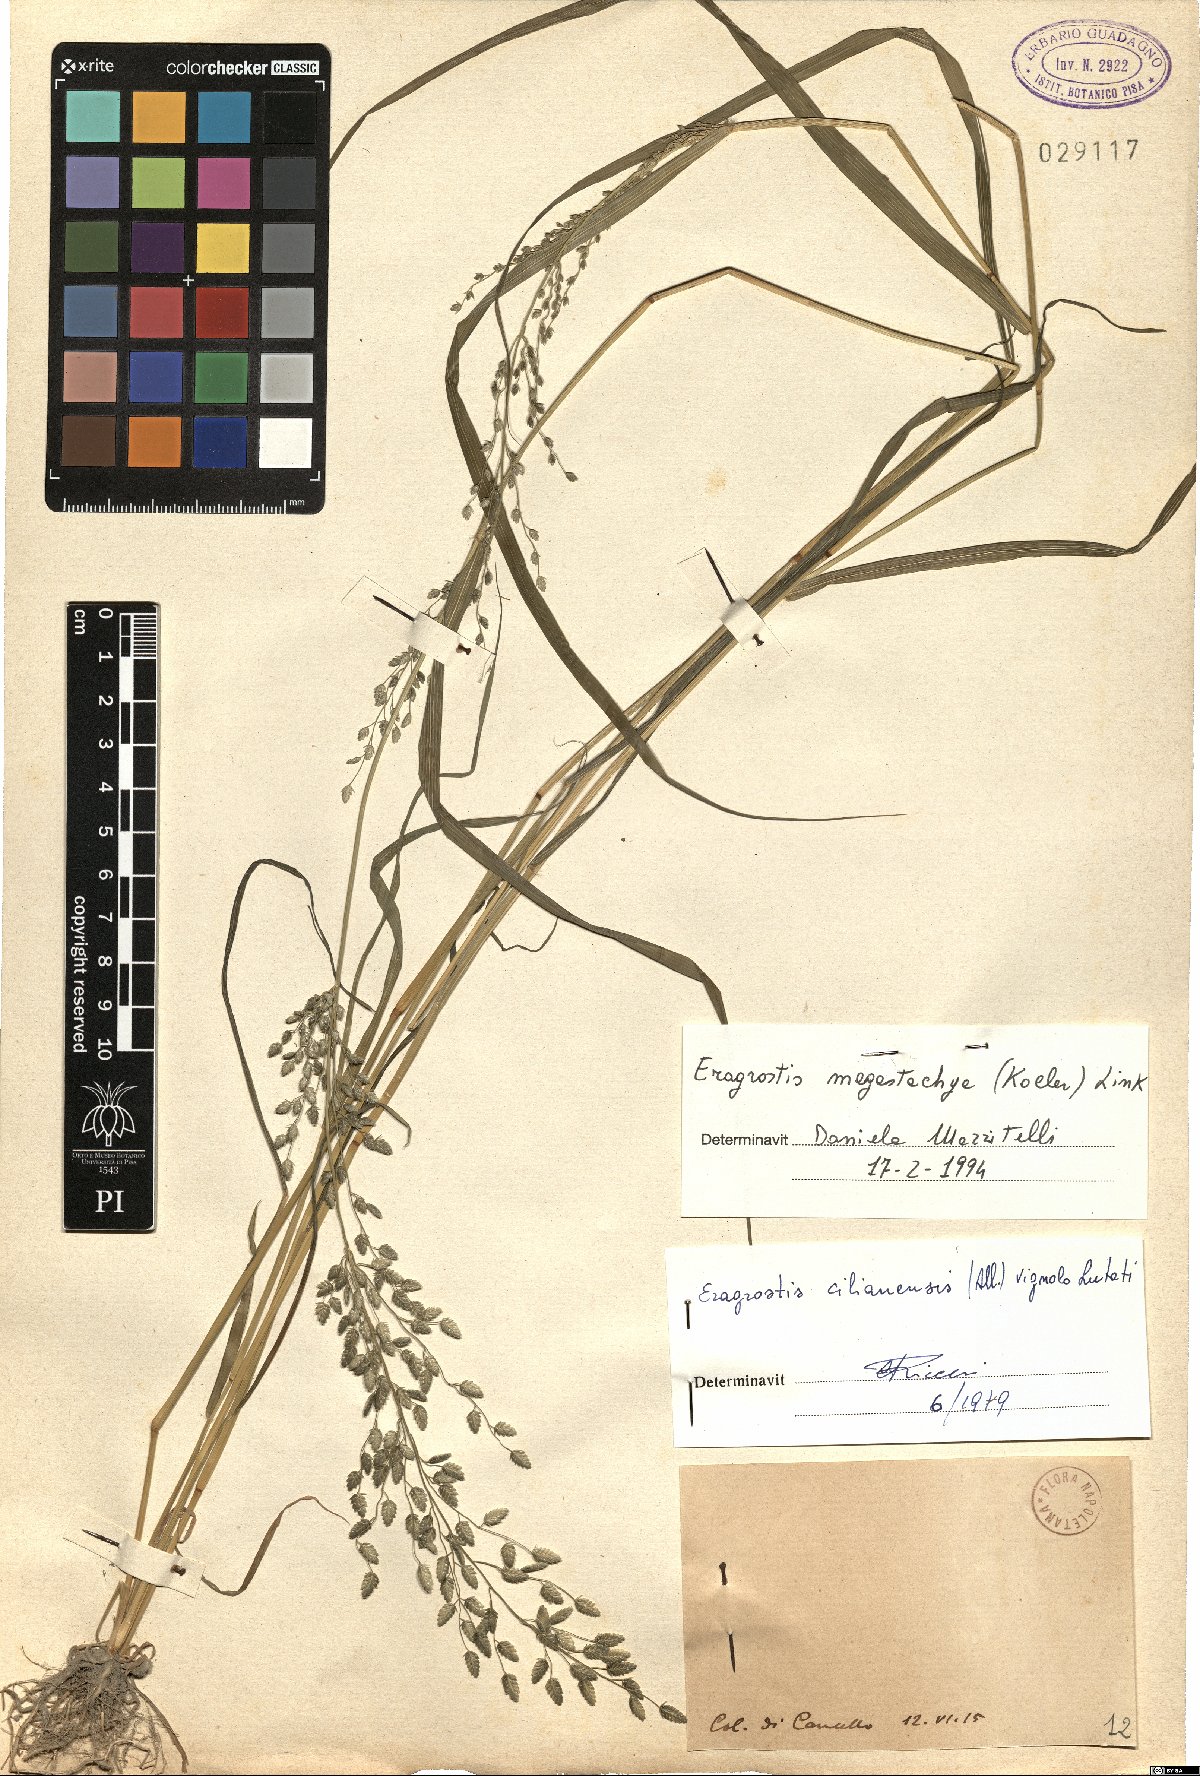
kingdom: Plantae
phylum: Tracheophyta
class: Liliopsida
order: Poales
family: Poaceae
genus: Eragrostis
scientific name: Eragrostis cilianensis
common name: Stinkgrass
